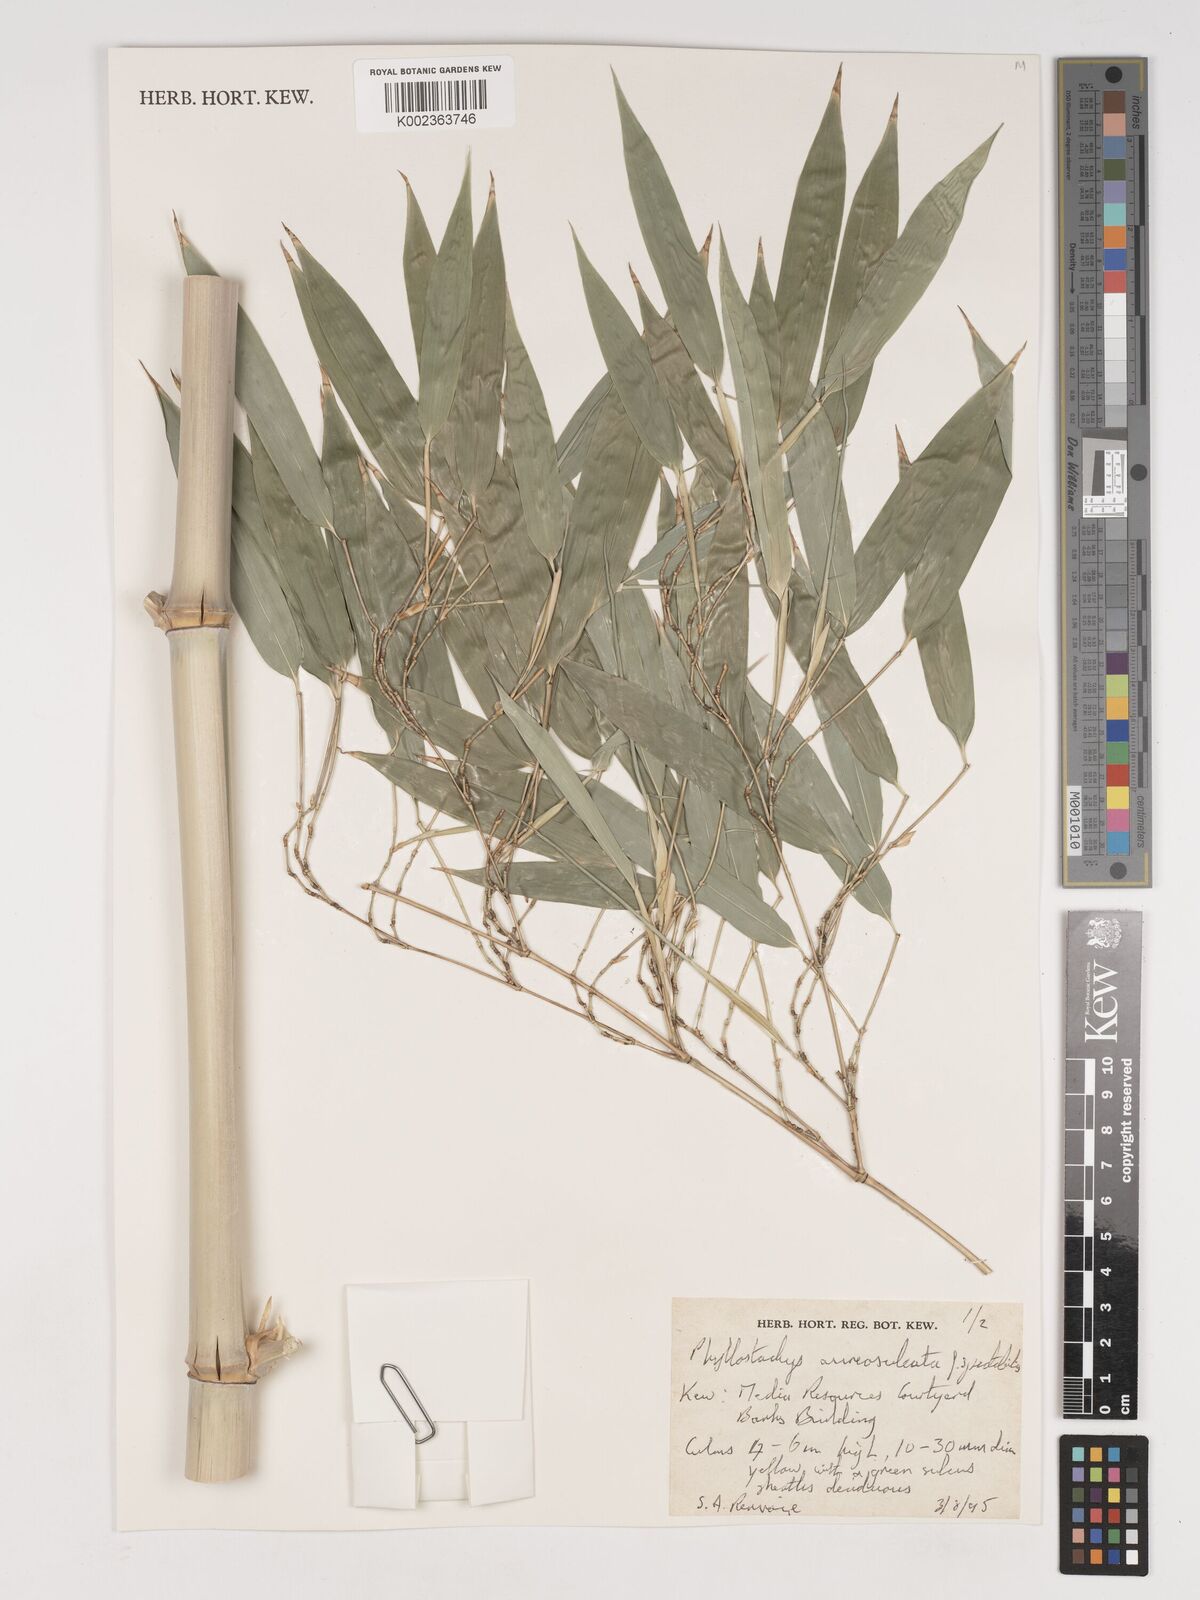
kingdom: Plantae
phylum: Tracheophyta
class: Liliopsida
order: Poales
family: Poaceae
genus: Phyllostachys
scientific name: Phyllostachys aureosulcata
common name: Yellow groove bamboo
